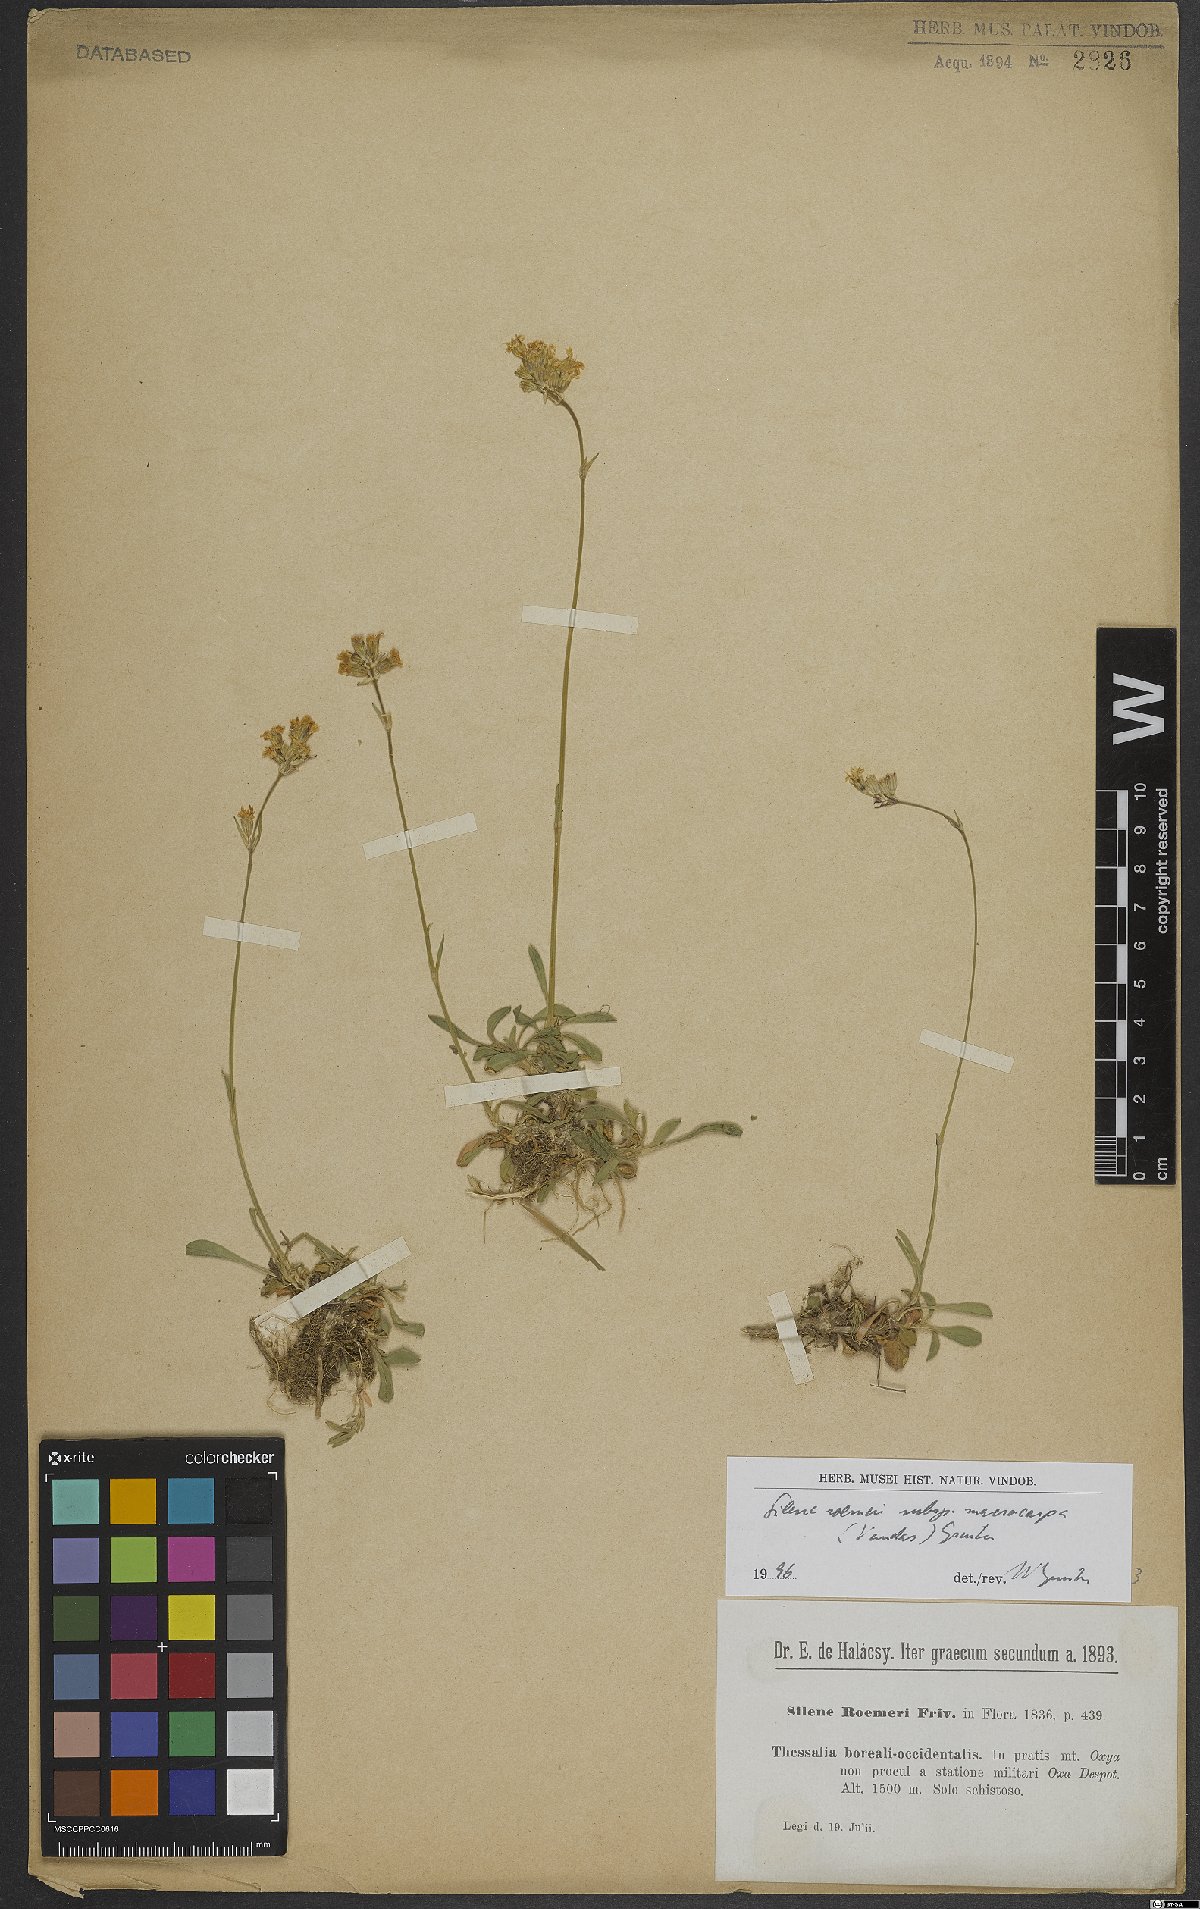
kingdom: Plantae
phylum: Tracheophyta
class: Magnoliopsida
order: Caryophyllales
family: Caryophyllaceae
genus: Silene
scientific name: Silene roemeri
